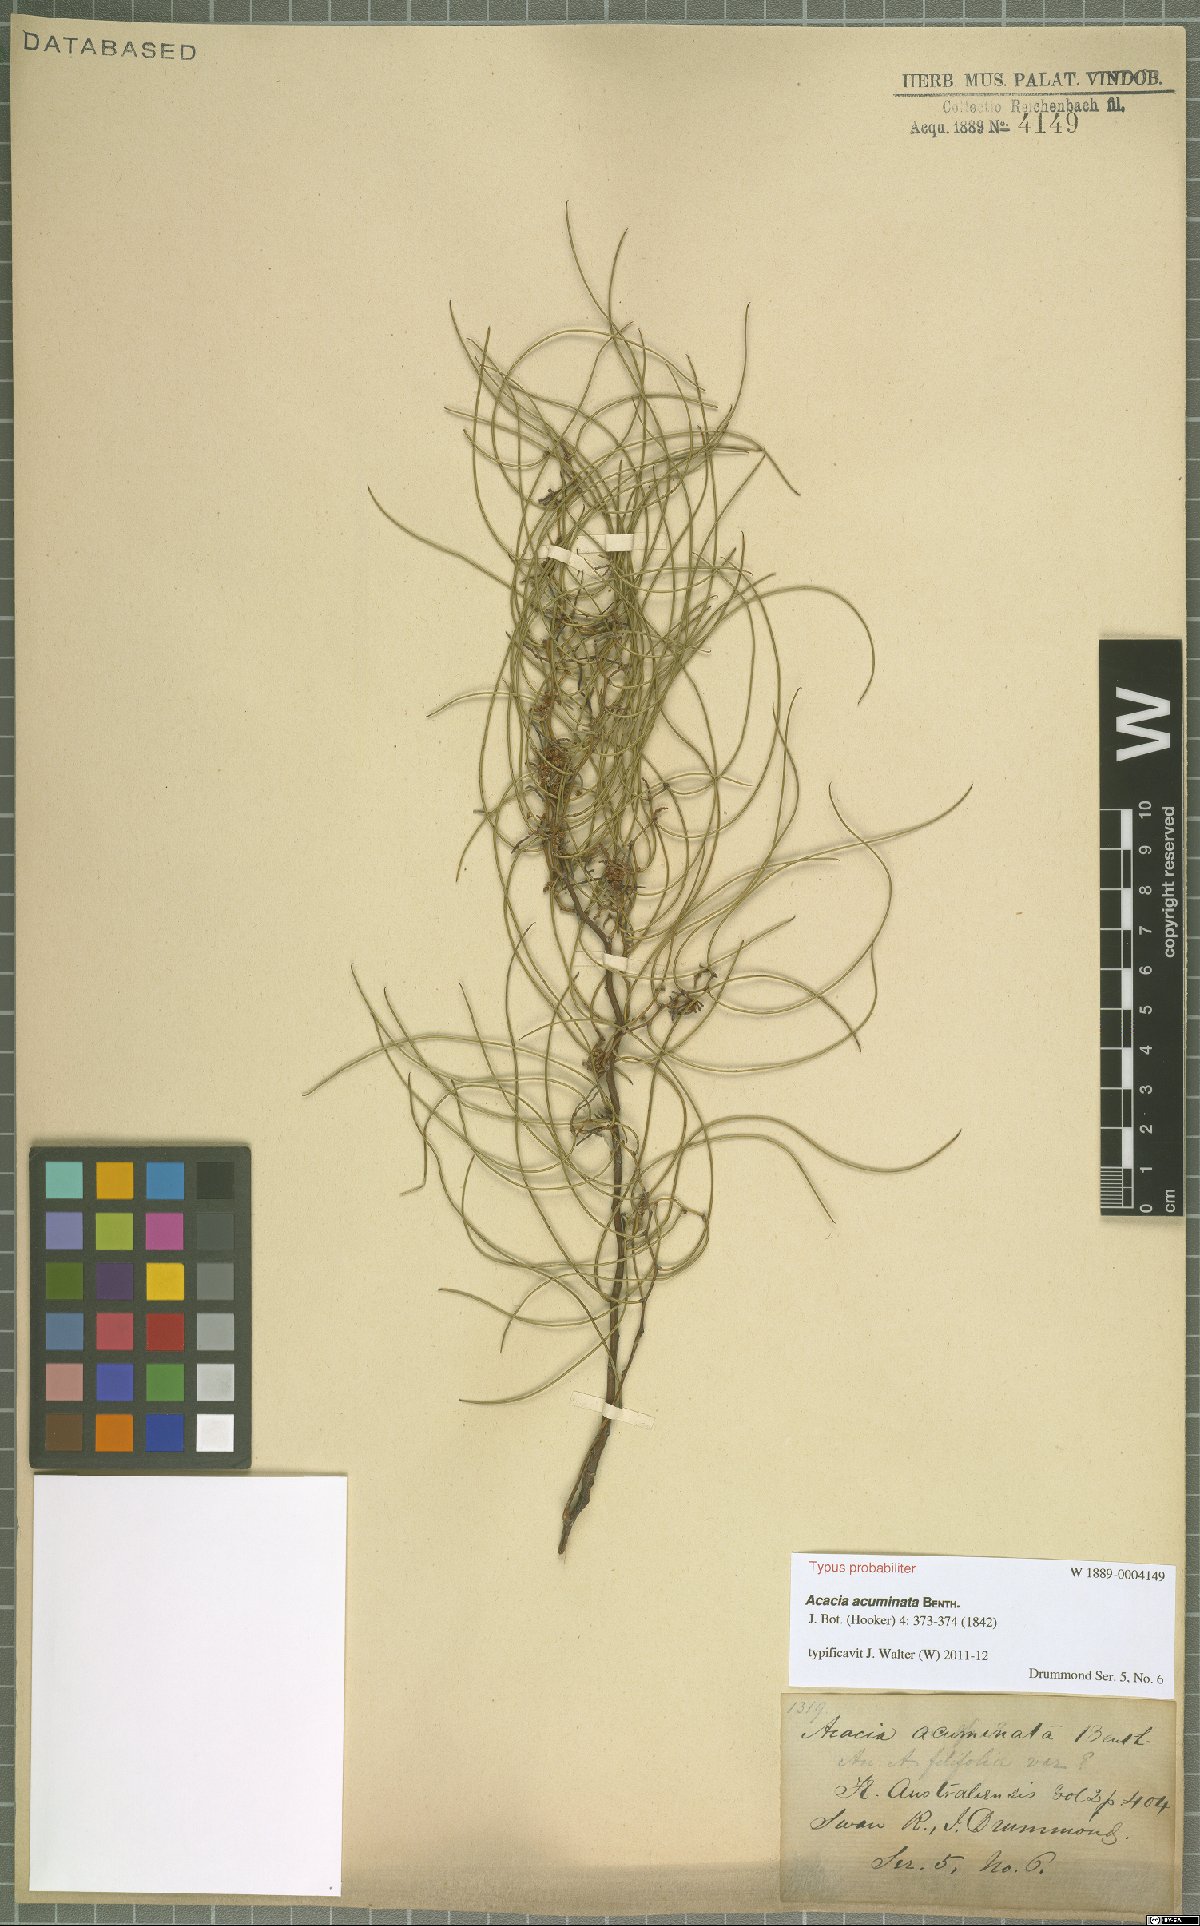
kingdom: Plantae
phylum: Tracheophyta
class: Magnoliopsida
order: Fabales
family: Fabaceae
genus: Acacia
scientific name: Acacia acuminata
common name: Jam wattle
